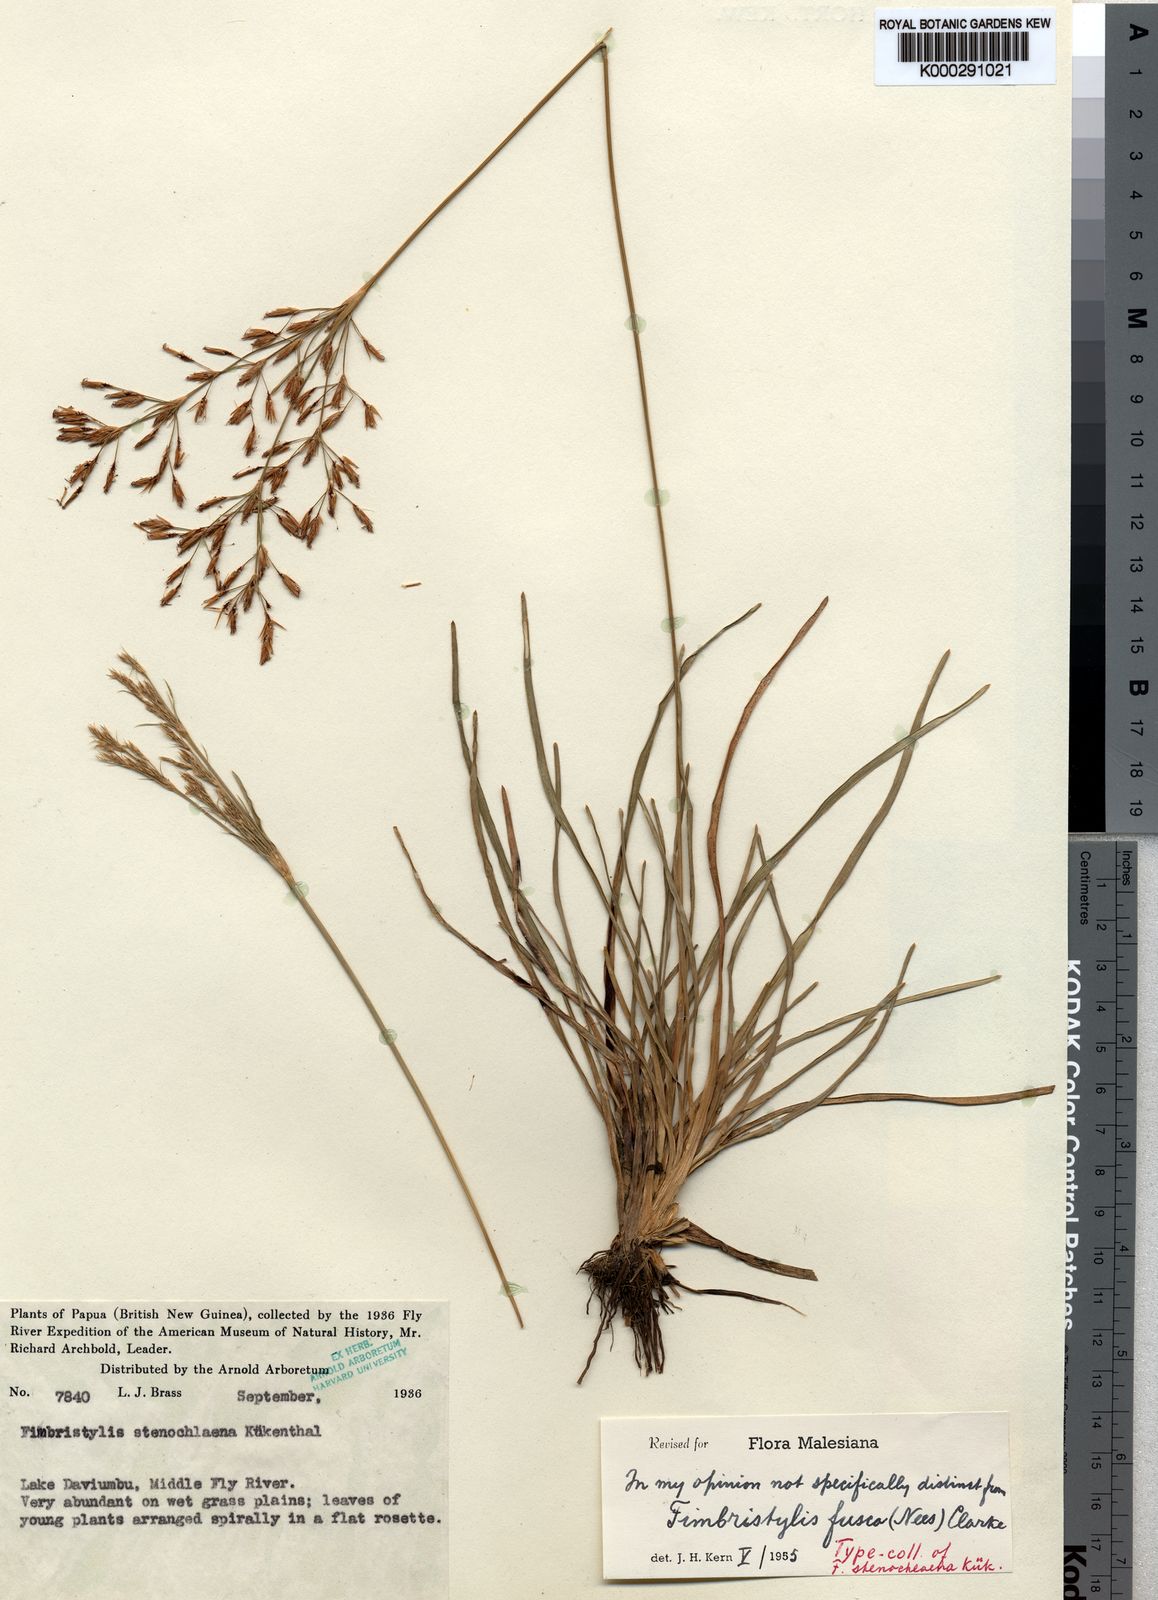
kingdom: Plantae
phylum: Tracheophyta
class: Liliopsida
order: Poales
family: Cyperaceae
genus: Fimbristylis
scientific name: Fimbristylis fusca
